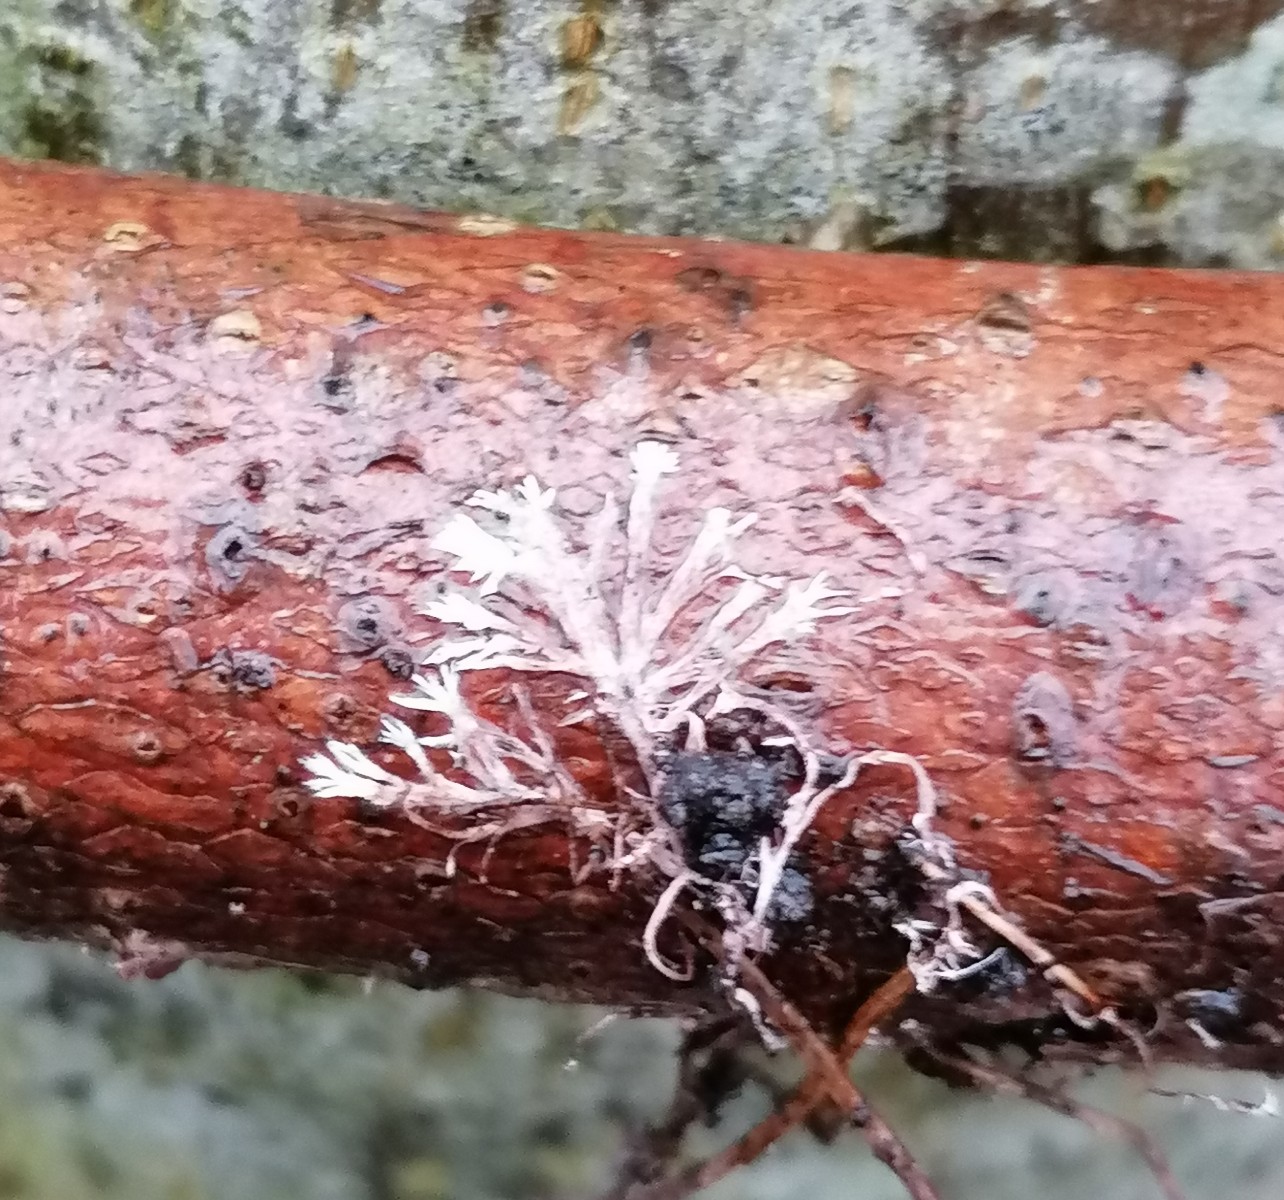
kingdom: Fungi
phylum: Basidiomycota
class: Agaricomycetes
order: Polyporales
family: Steccherinaceae
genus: Steccherinum
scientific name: Steccherinum fimbriatum
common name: trådet skønpig
